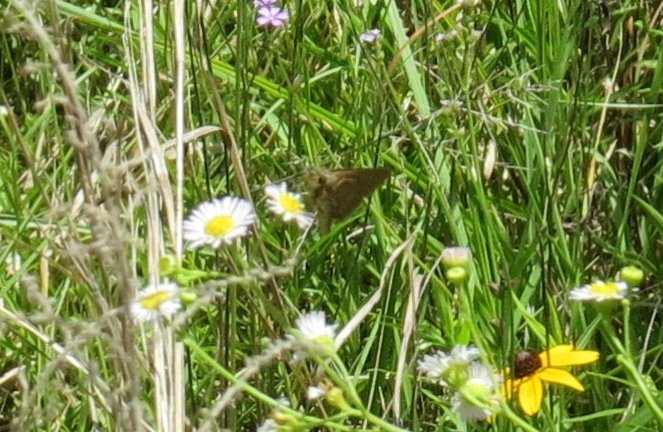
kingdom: Animalia
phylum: Arthropoda
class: Insecta
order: Lepidoptera
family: Hesperiidae
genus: Nastra
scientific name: Nastra lherminier
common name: Swarthy Skipper
